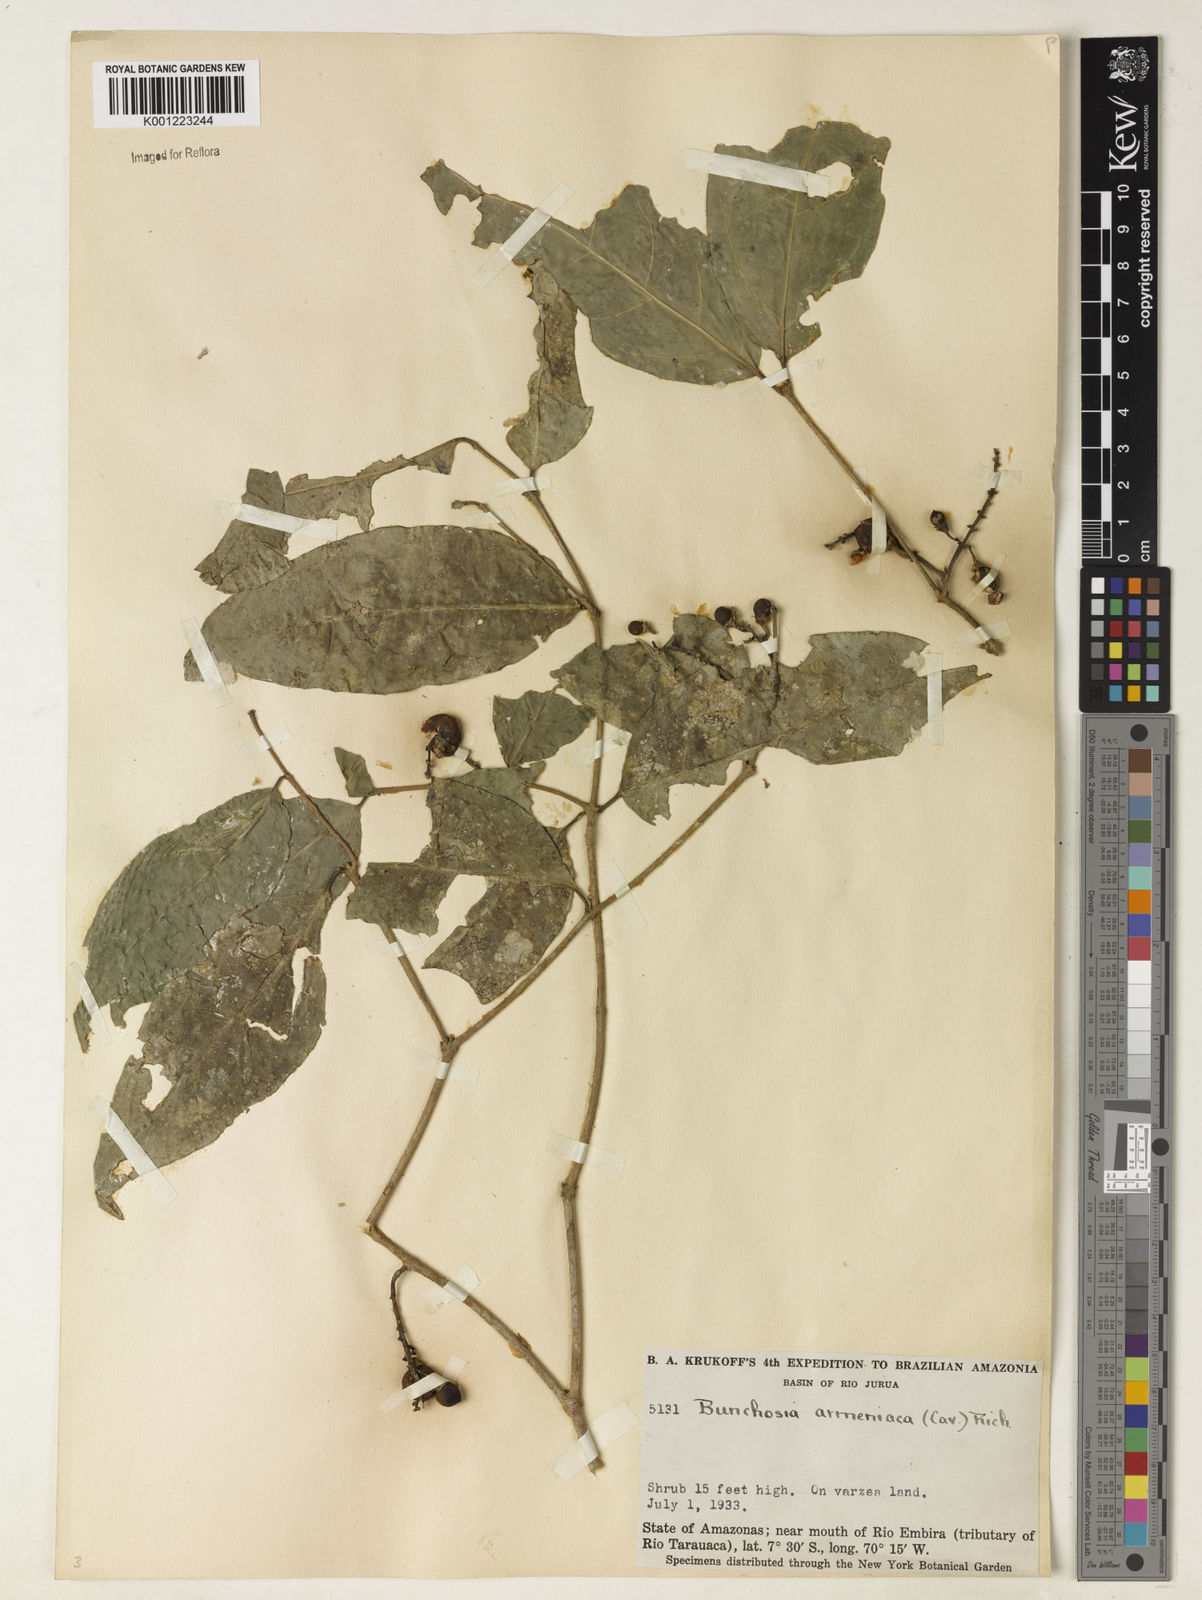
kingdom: Plantae
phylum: Tracheophyta
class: Magnoliopsida
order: Malpighiales
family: Malpighiaceae
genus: Bunchosia
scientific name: Bunchosia armeniaca
